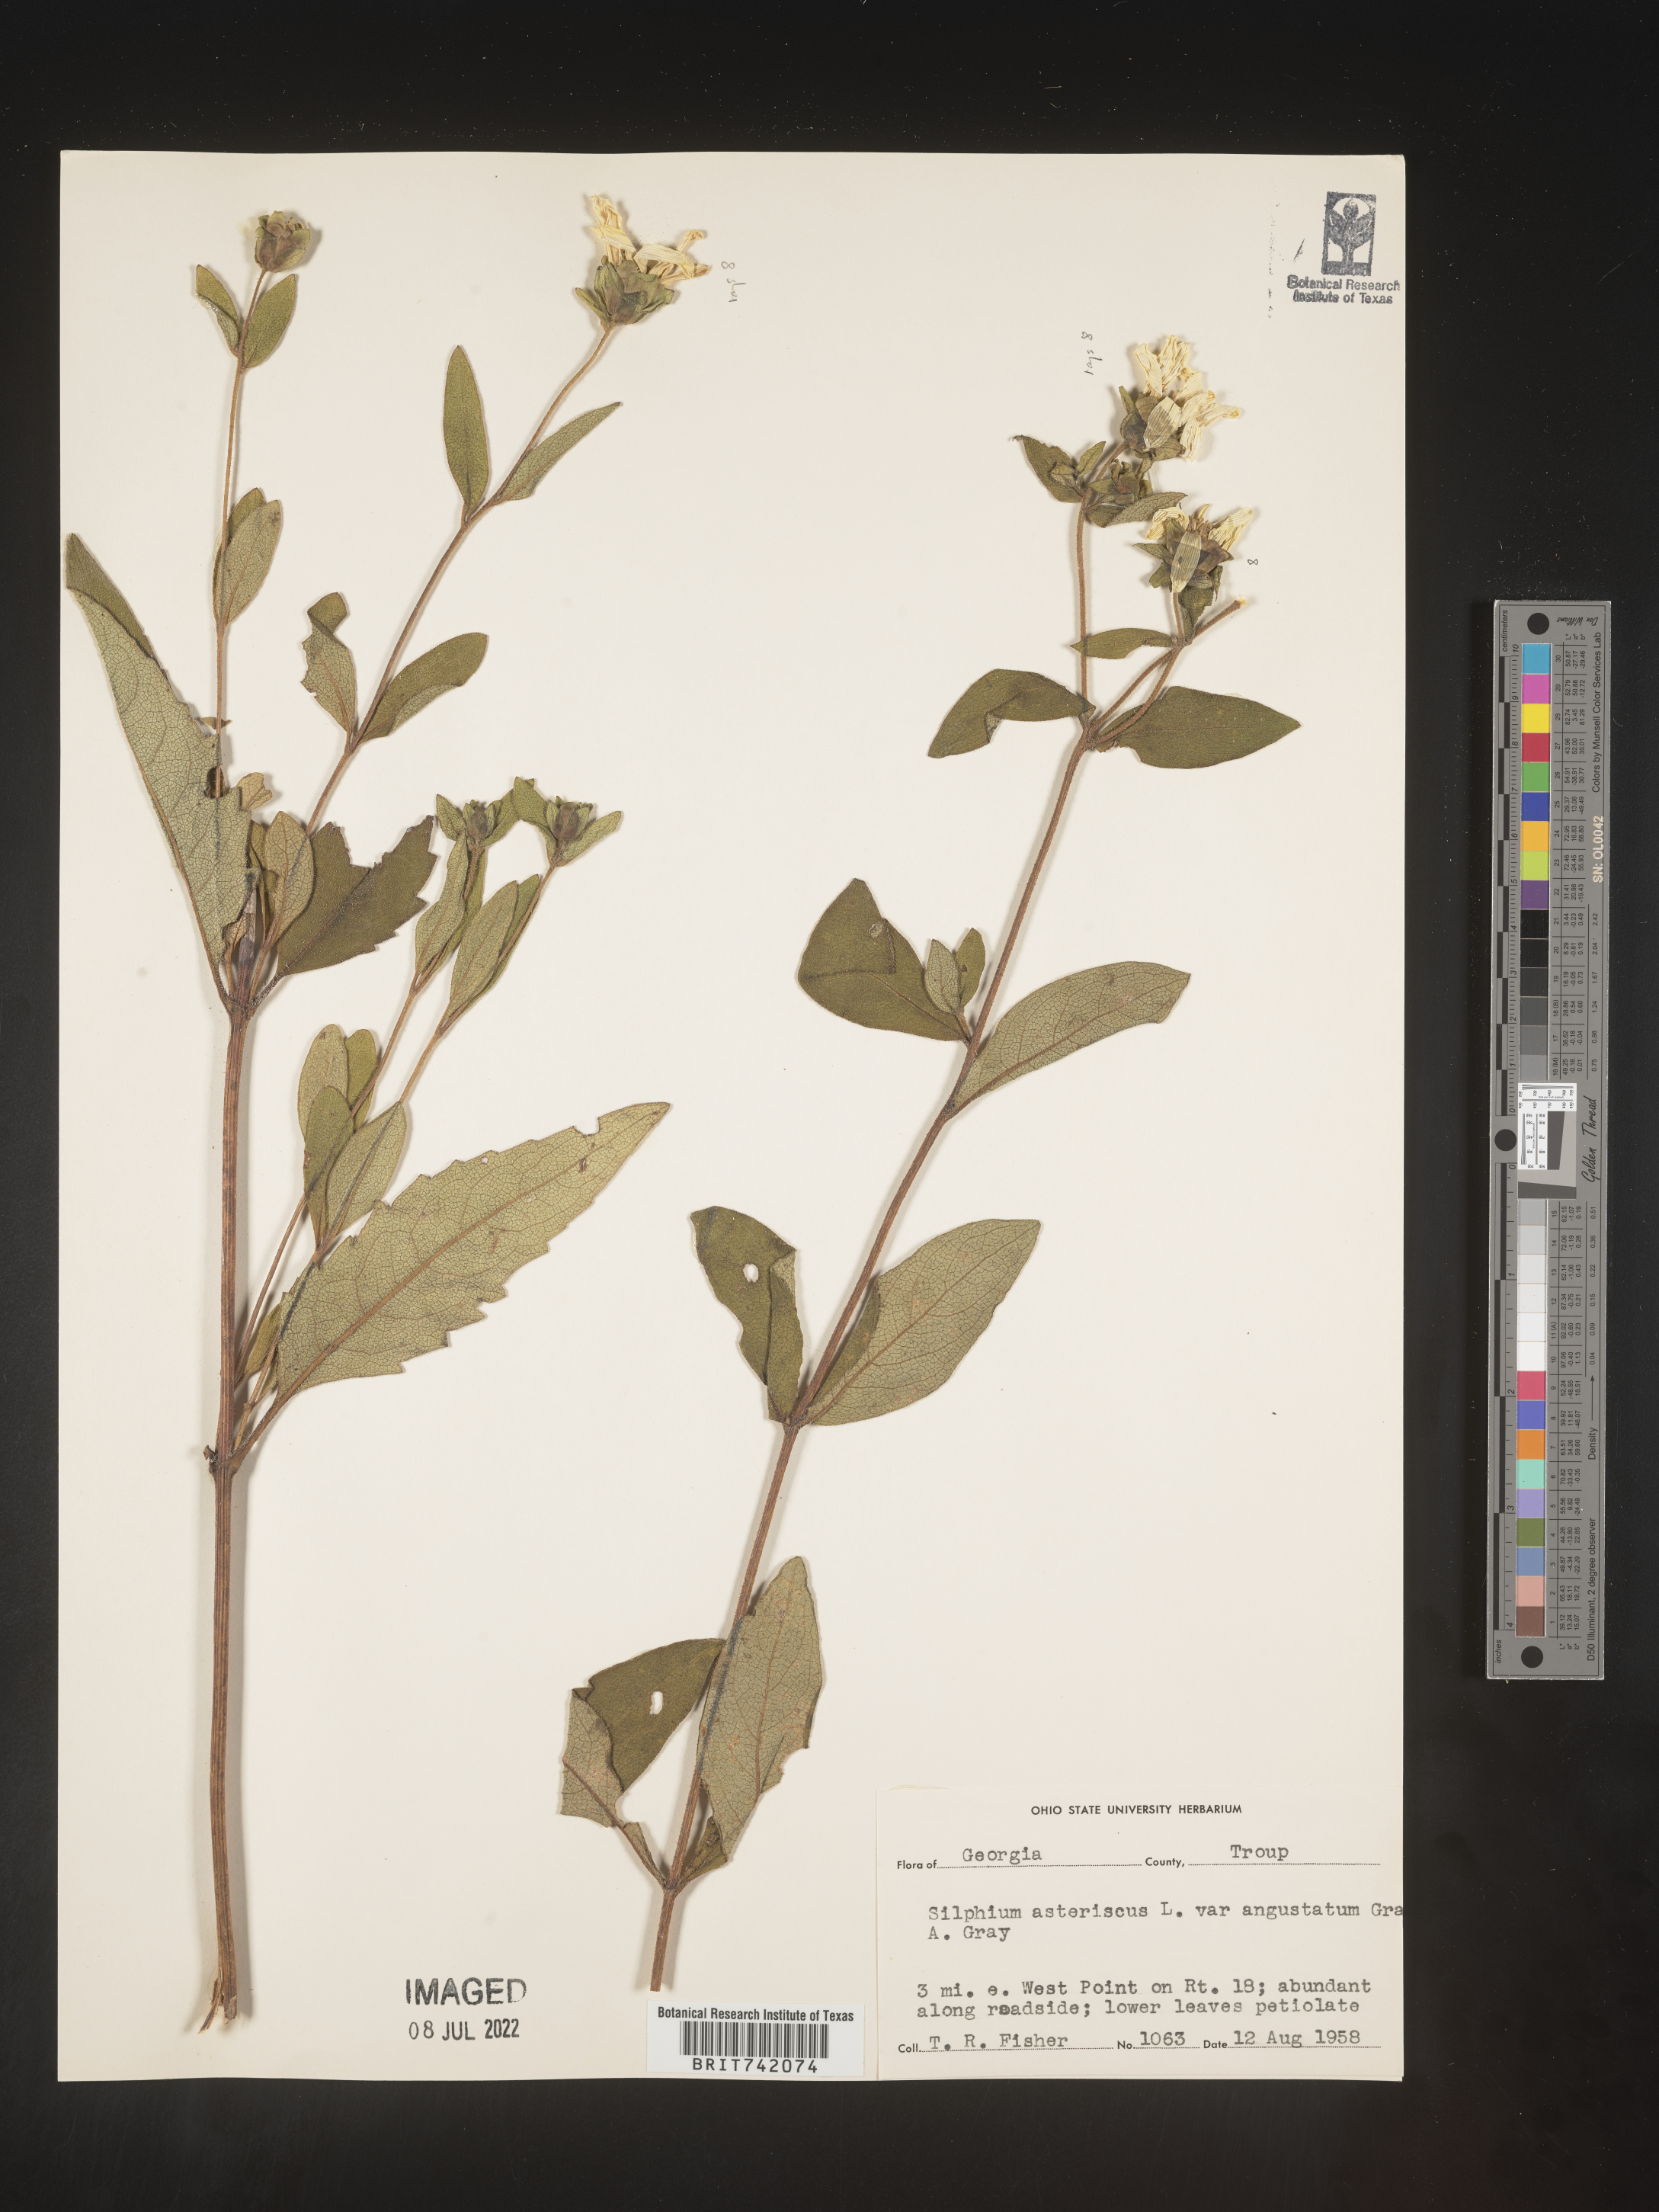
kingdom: Plantae
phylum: Tracheophyta
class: Magnoliopsida
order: Asterales
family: Asteraceae
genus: Silphium
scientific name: Silphium asteriscus
